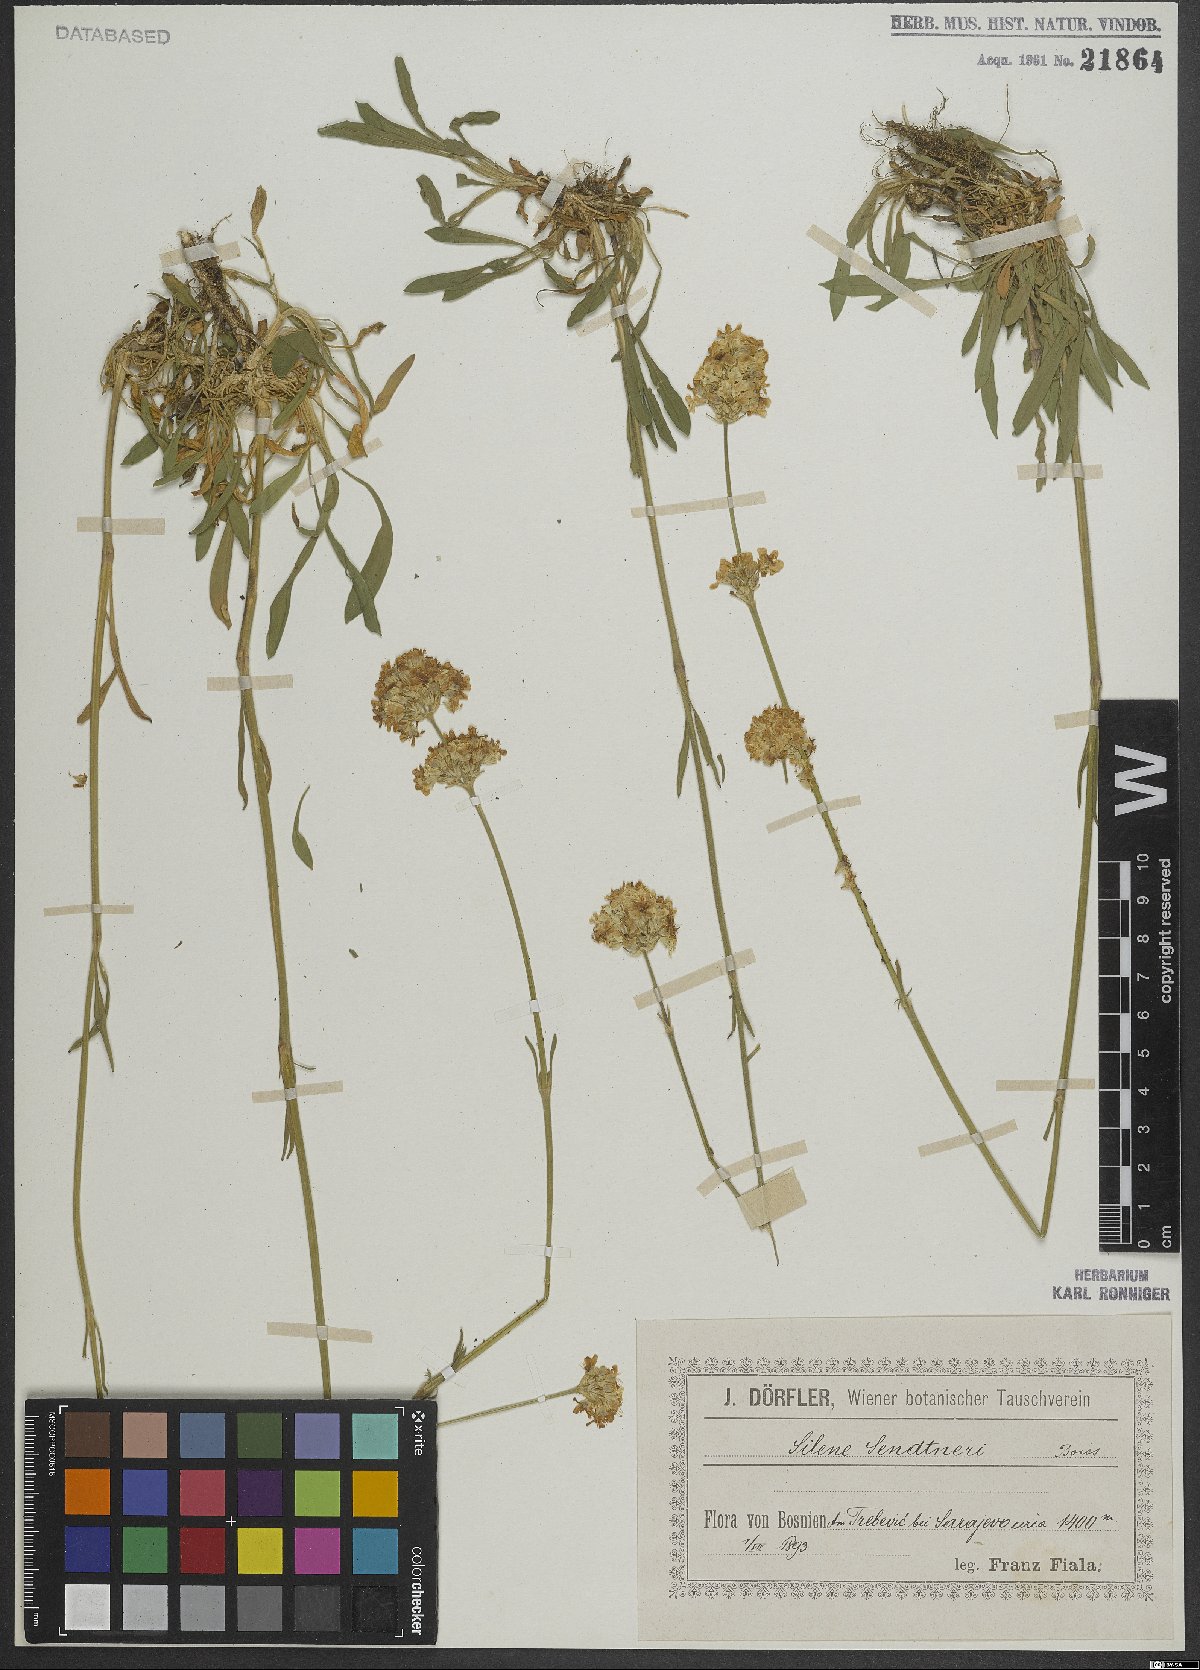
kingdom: Plantae
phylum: Tracheophyta
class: Magnoliopsida
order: Caryophyllales
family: Caryophyllaceae
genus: Silene
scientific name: Silene sendtneri
